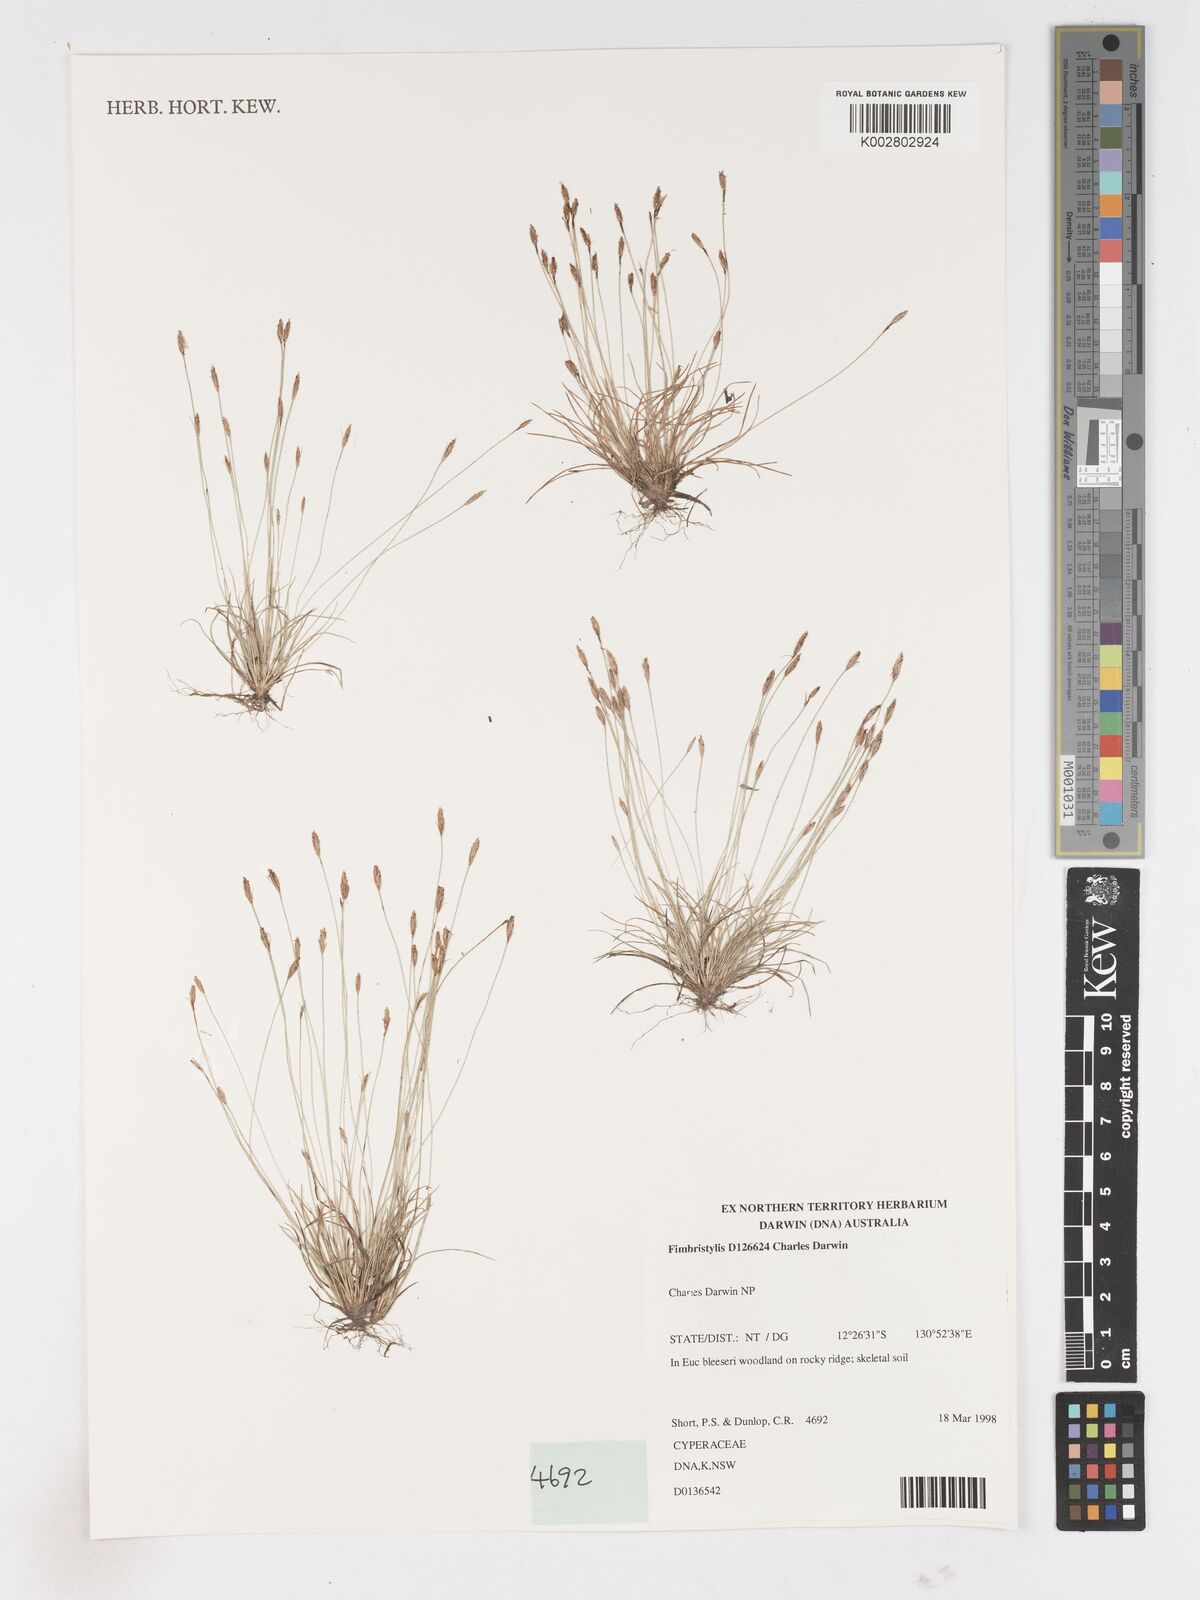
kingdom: Plantae
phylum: Tracheophyta
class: Liliopsida
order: Poales
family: Cyperaceae
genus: Fimbristylis
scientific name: Fimbristylis
